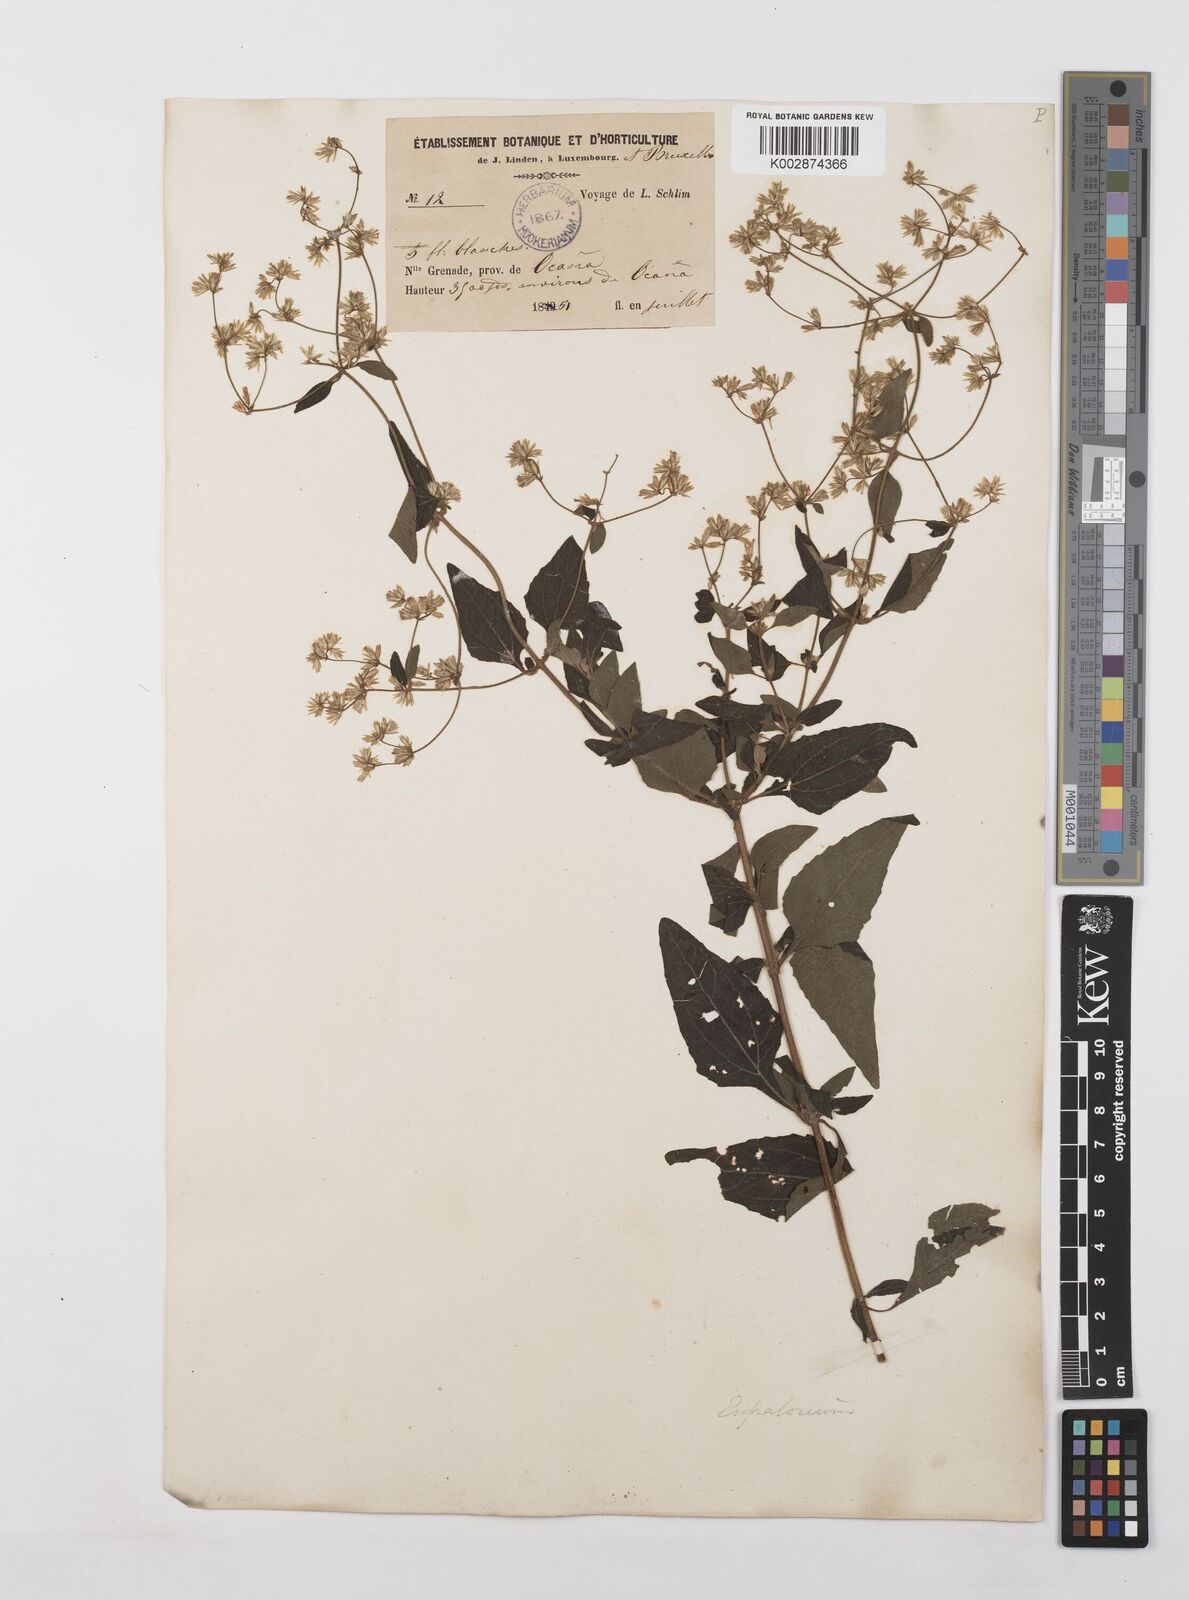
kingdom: Plantae
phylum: Tracheophyta
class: Magnoliopsida
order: Asterales
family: Asteraceae
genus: Condylidium
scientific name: Condylidium iresinoides
